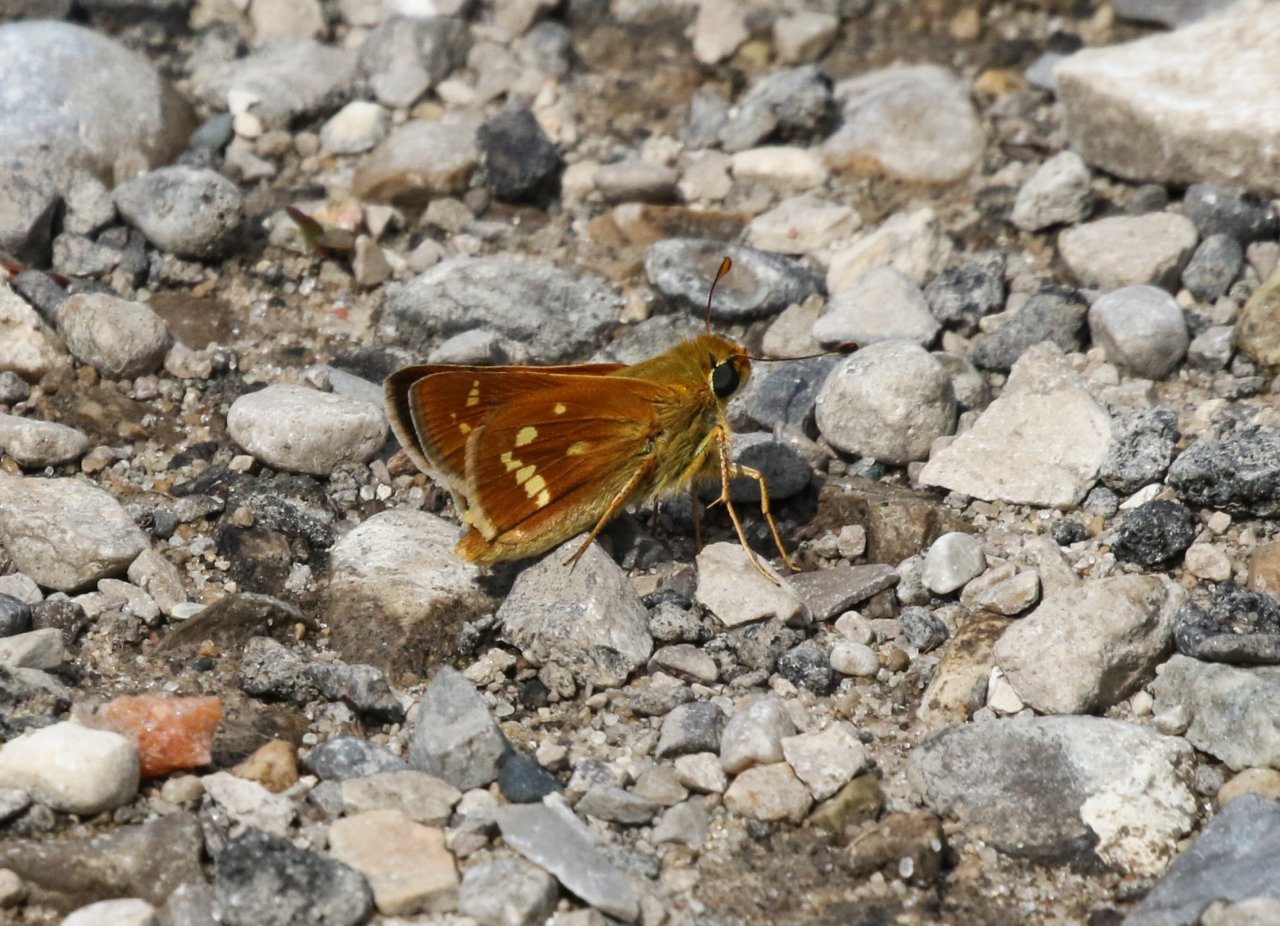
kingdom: Animalia
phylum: Arthropoda
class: Insecta
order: Lepidoptera
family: Hesperiidae
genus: Hesperia
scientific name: Hesperia leonardus
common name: Leonard's Skipper
